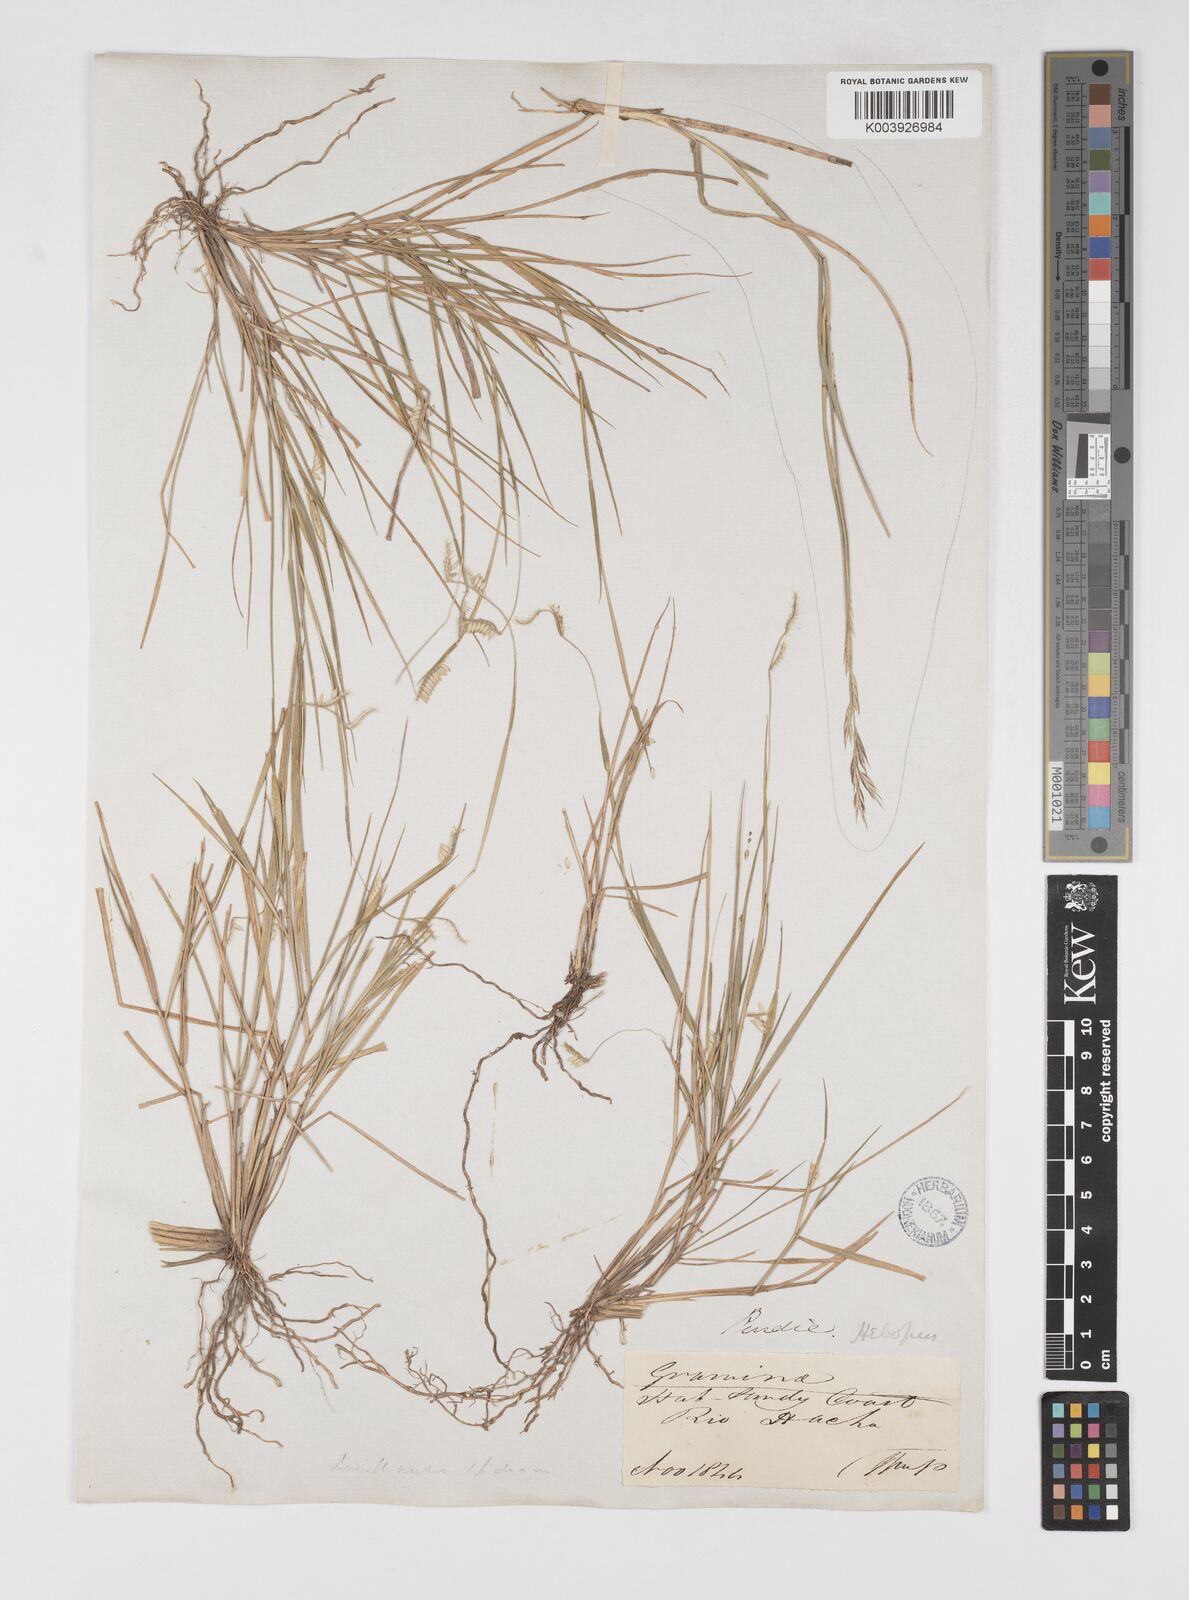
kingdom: Plantae
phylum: Tracheophyta
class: Liliopsida
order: Poales
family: Poaceae
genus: Eriochloa
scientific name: Eriochloa distachya
